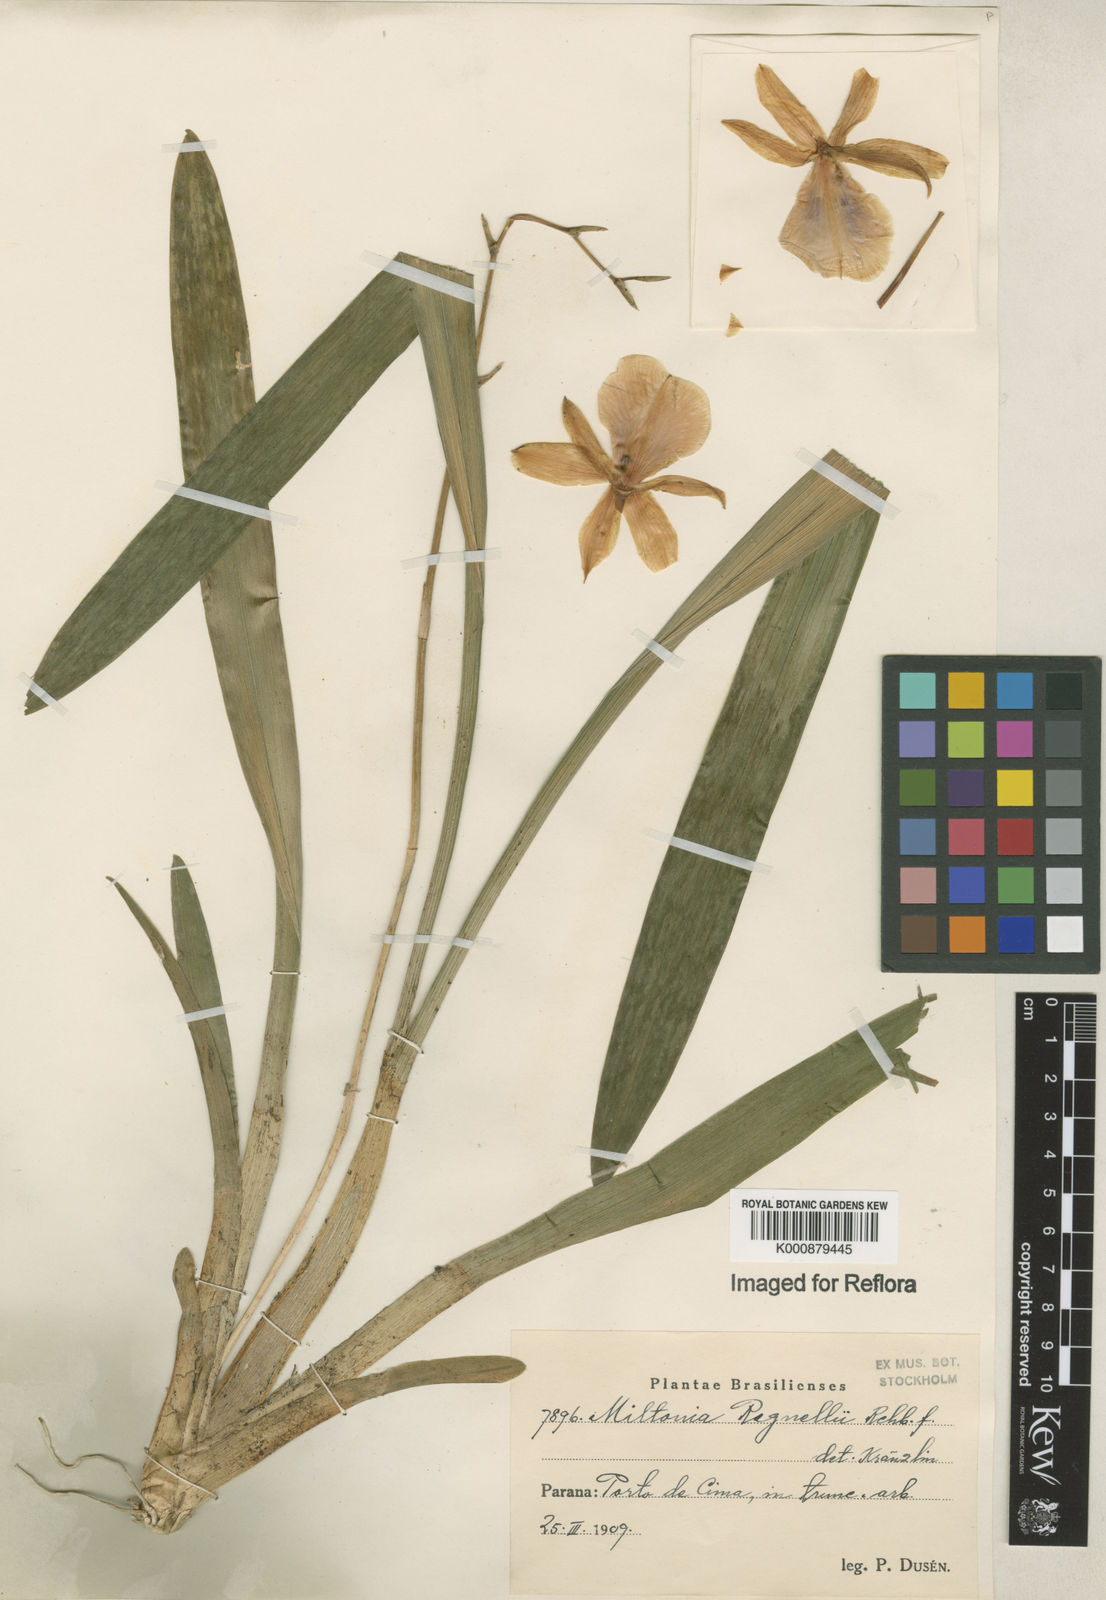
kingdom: Plantae
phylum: Tracheophyta
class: Liliopsida
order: Asparagales
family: Orchidaceae
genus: Miltonia
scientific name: Miltonia regnellii
